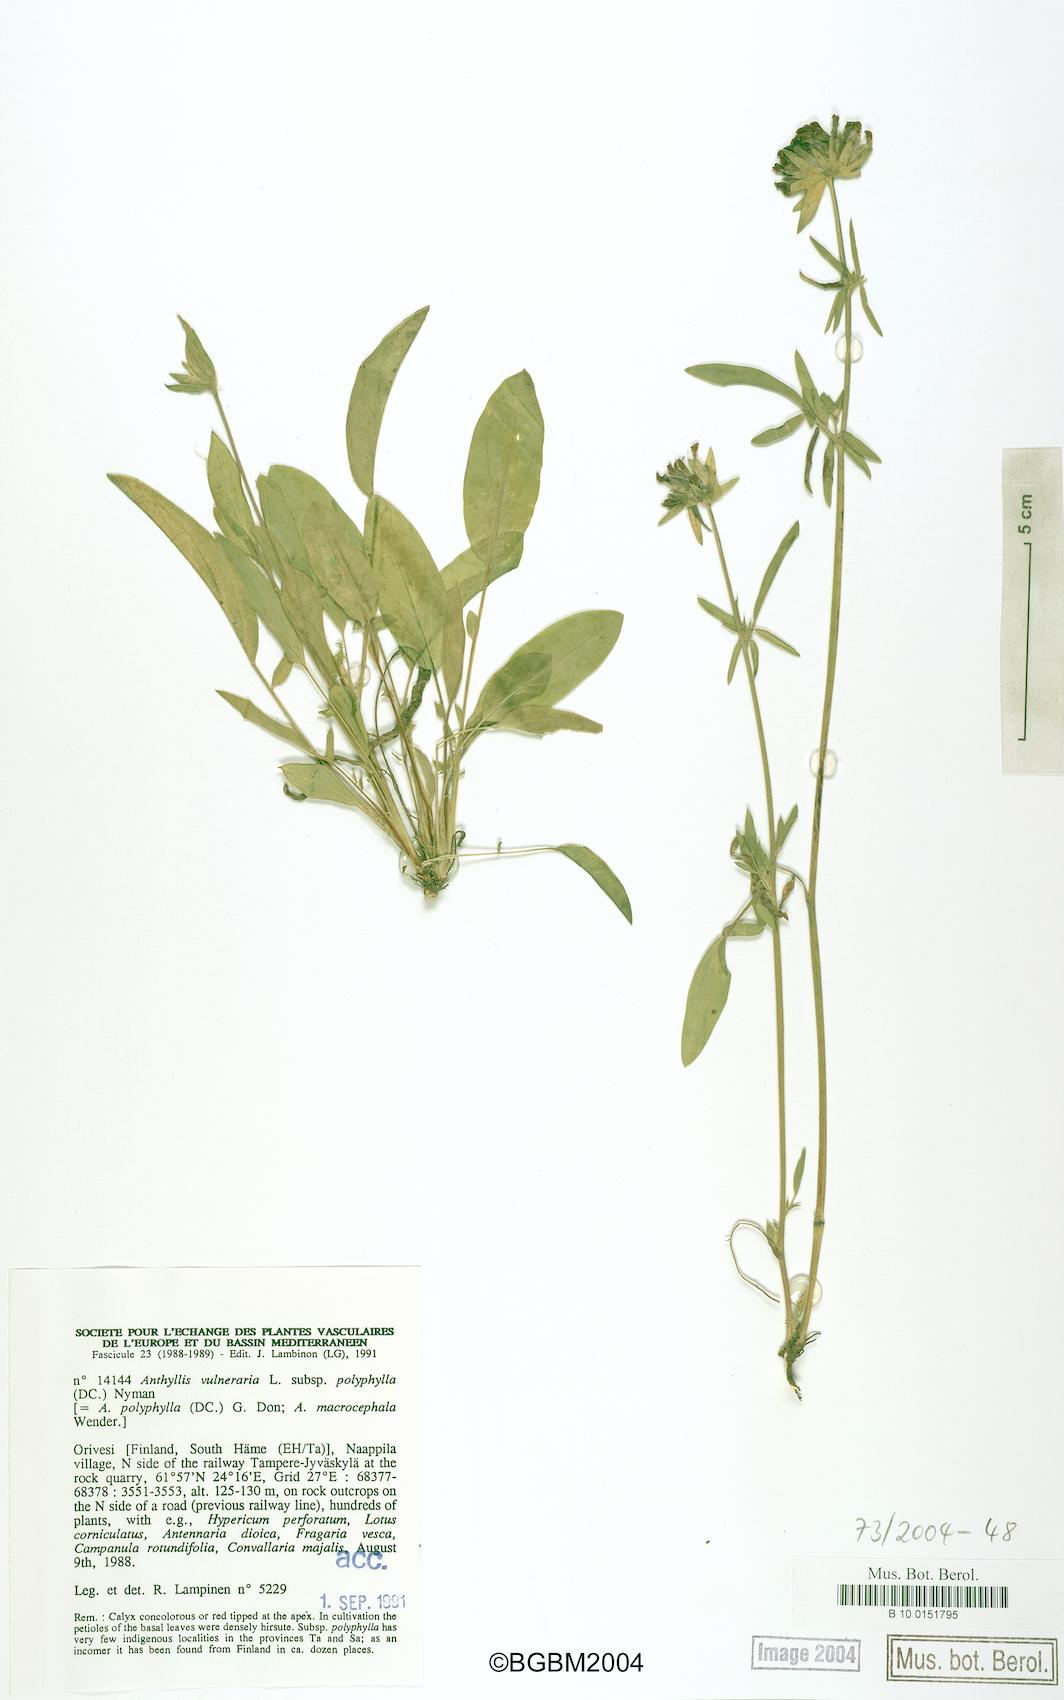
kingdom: Plantae
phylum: Tracheophyta
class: Magnoliopsida
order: Fabales
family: Fabaceae
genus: Anthyllis
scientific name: Anthyllis vulneraria
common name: Kidney vetch
